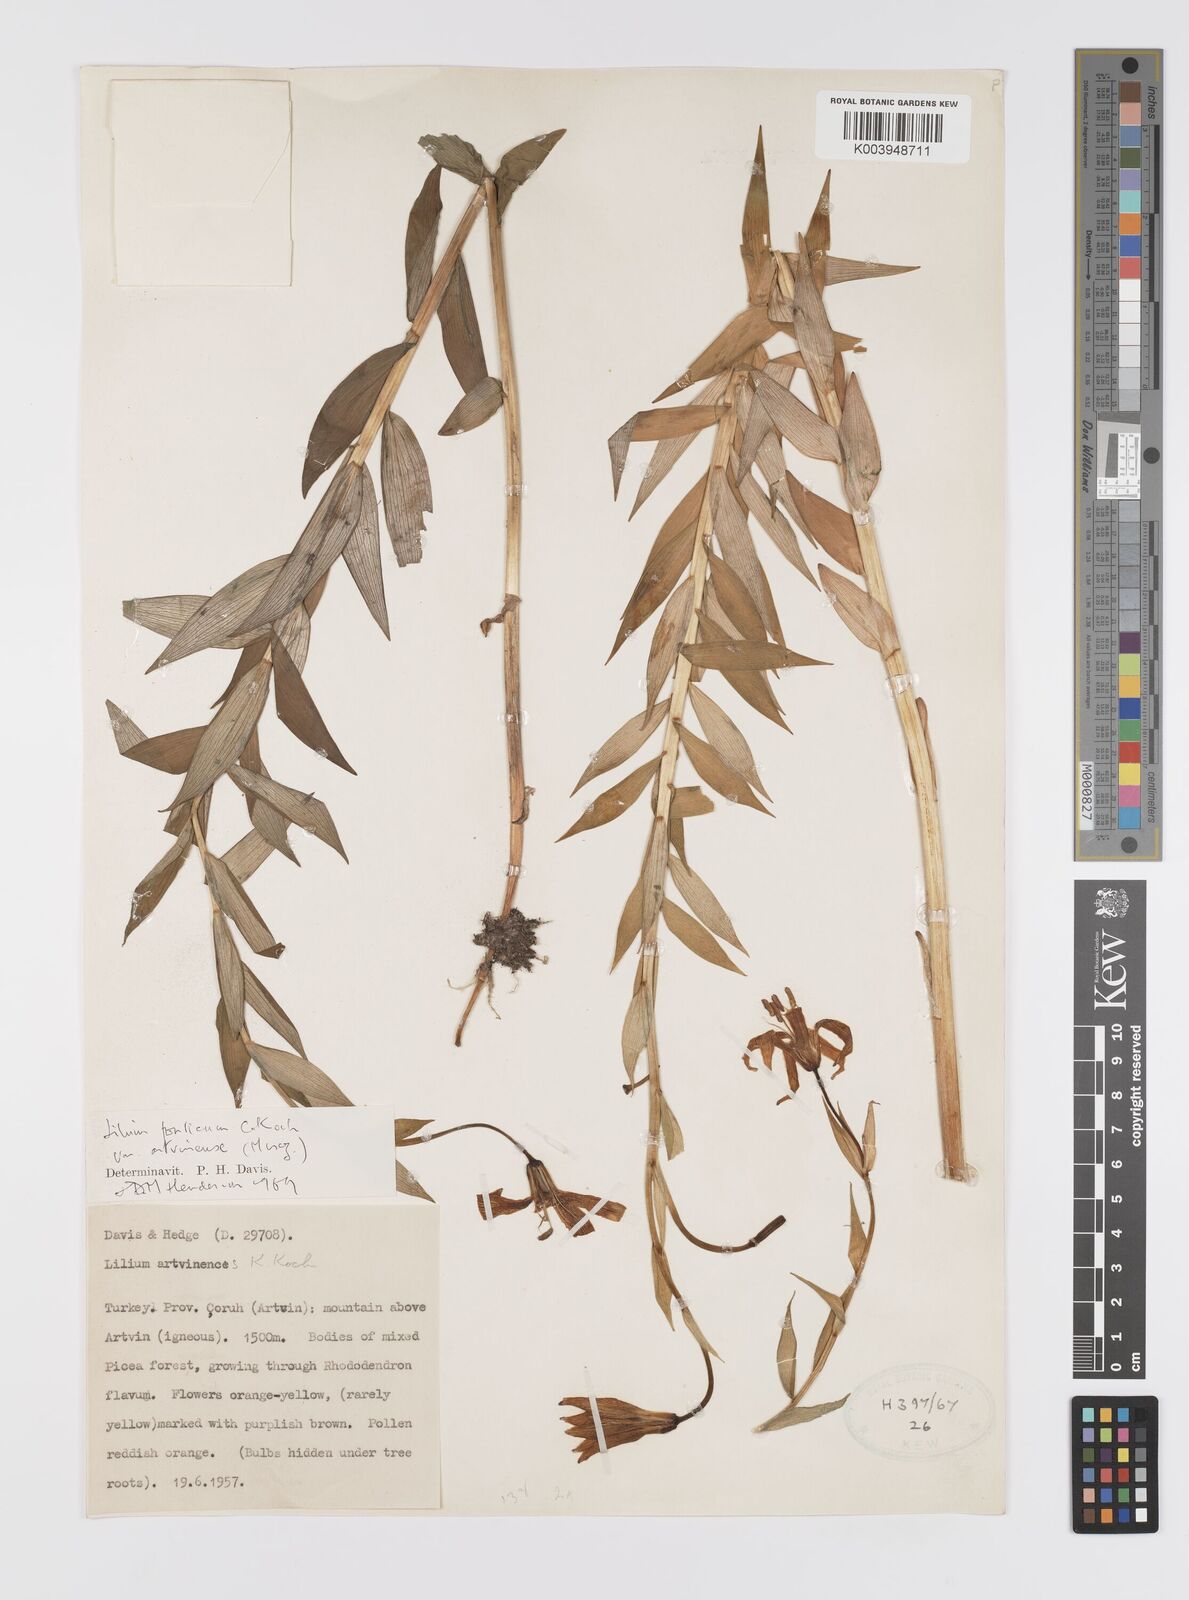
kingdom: Plantae
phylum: Tracheophyta
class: Liliopsida
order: Liliales
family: Liliaceae
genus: Lilium
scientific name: Lilium ponticum
